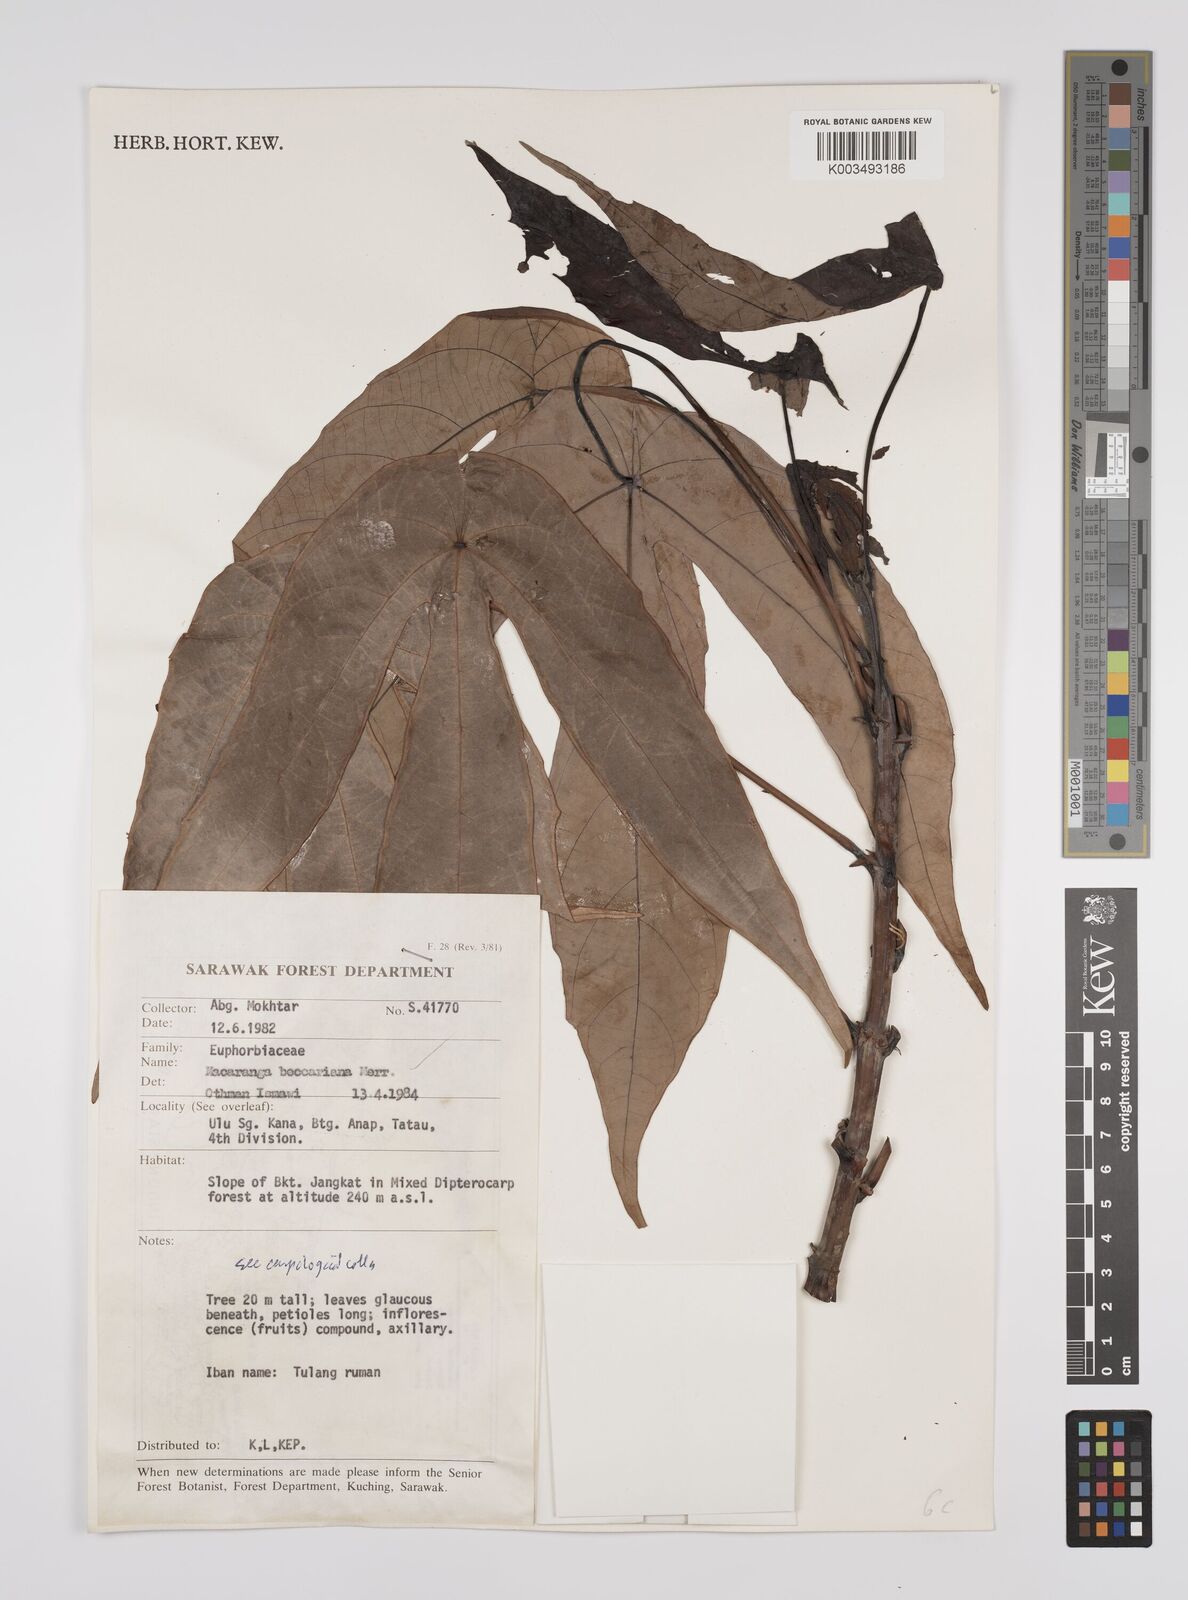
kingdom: Plantae
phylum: Tracheophyta
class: Magnoliopsida
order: Malpighiales
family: Euphorbiaceae
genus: Macaranga
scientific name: Macaranga beccariana
